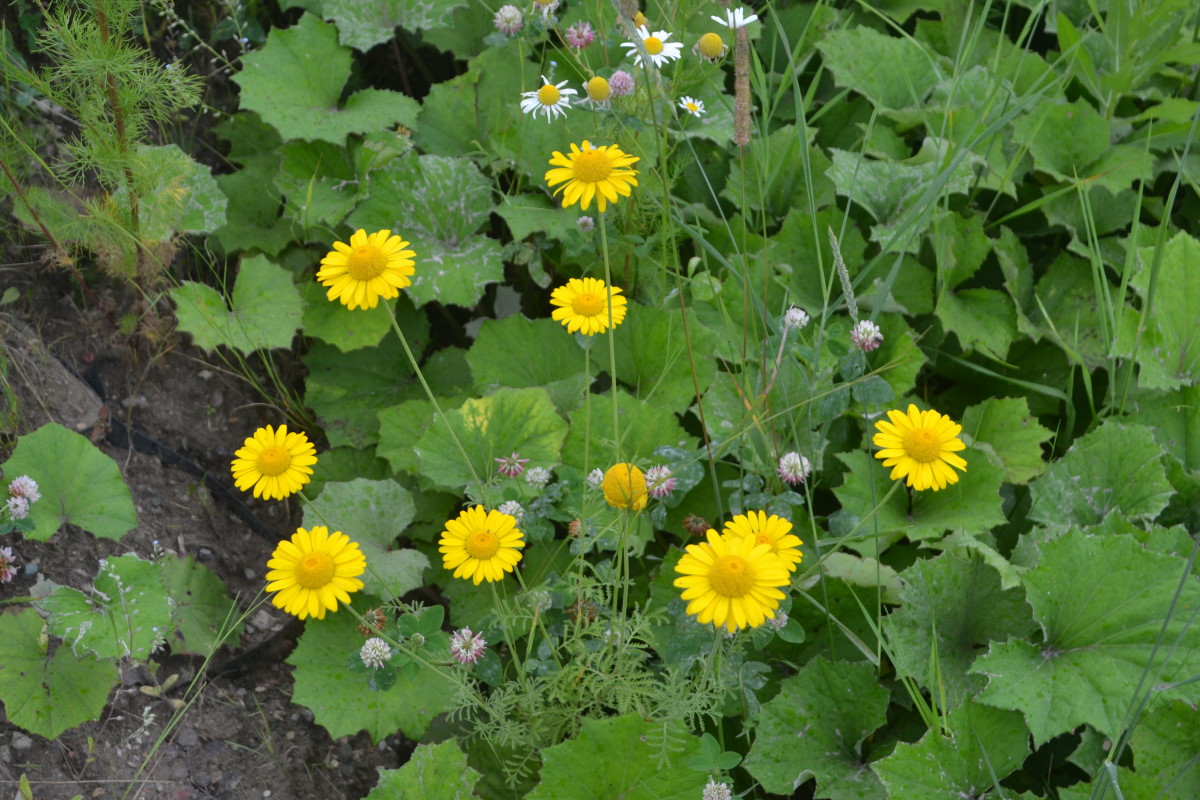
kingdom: Plantae
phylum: Tracheophyta
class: Magnoliopsida
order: Asterales
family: Asteraceae
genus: Cota
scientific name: Cota tinctoria
